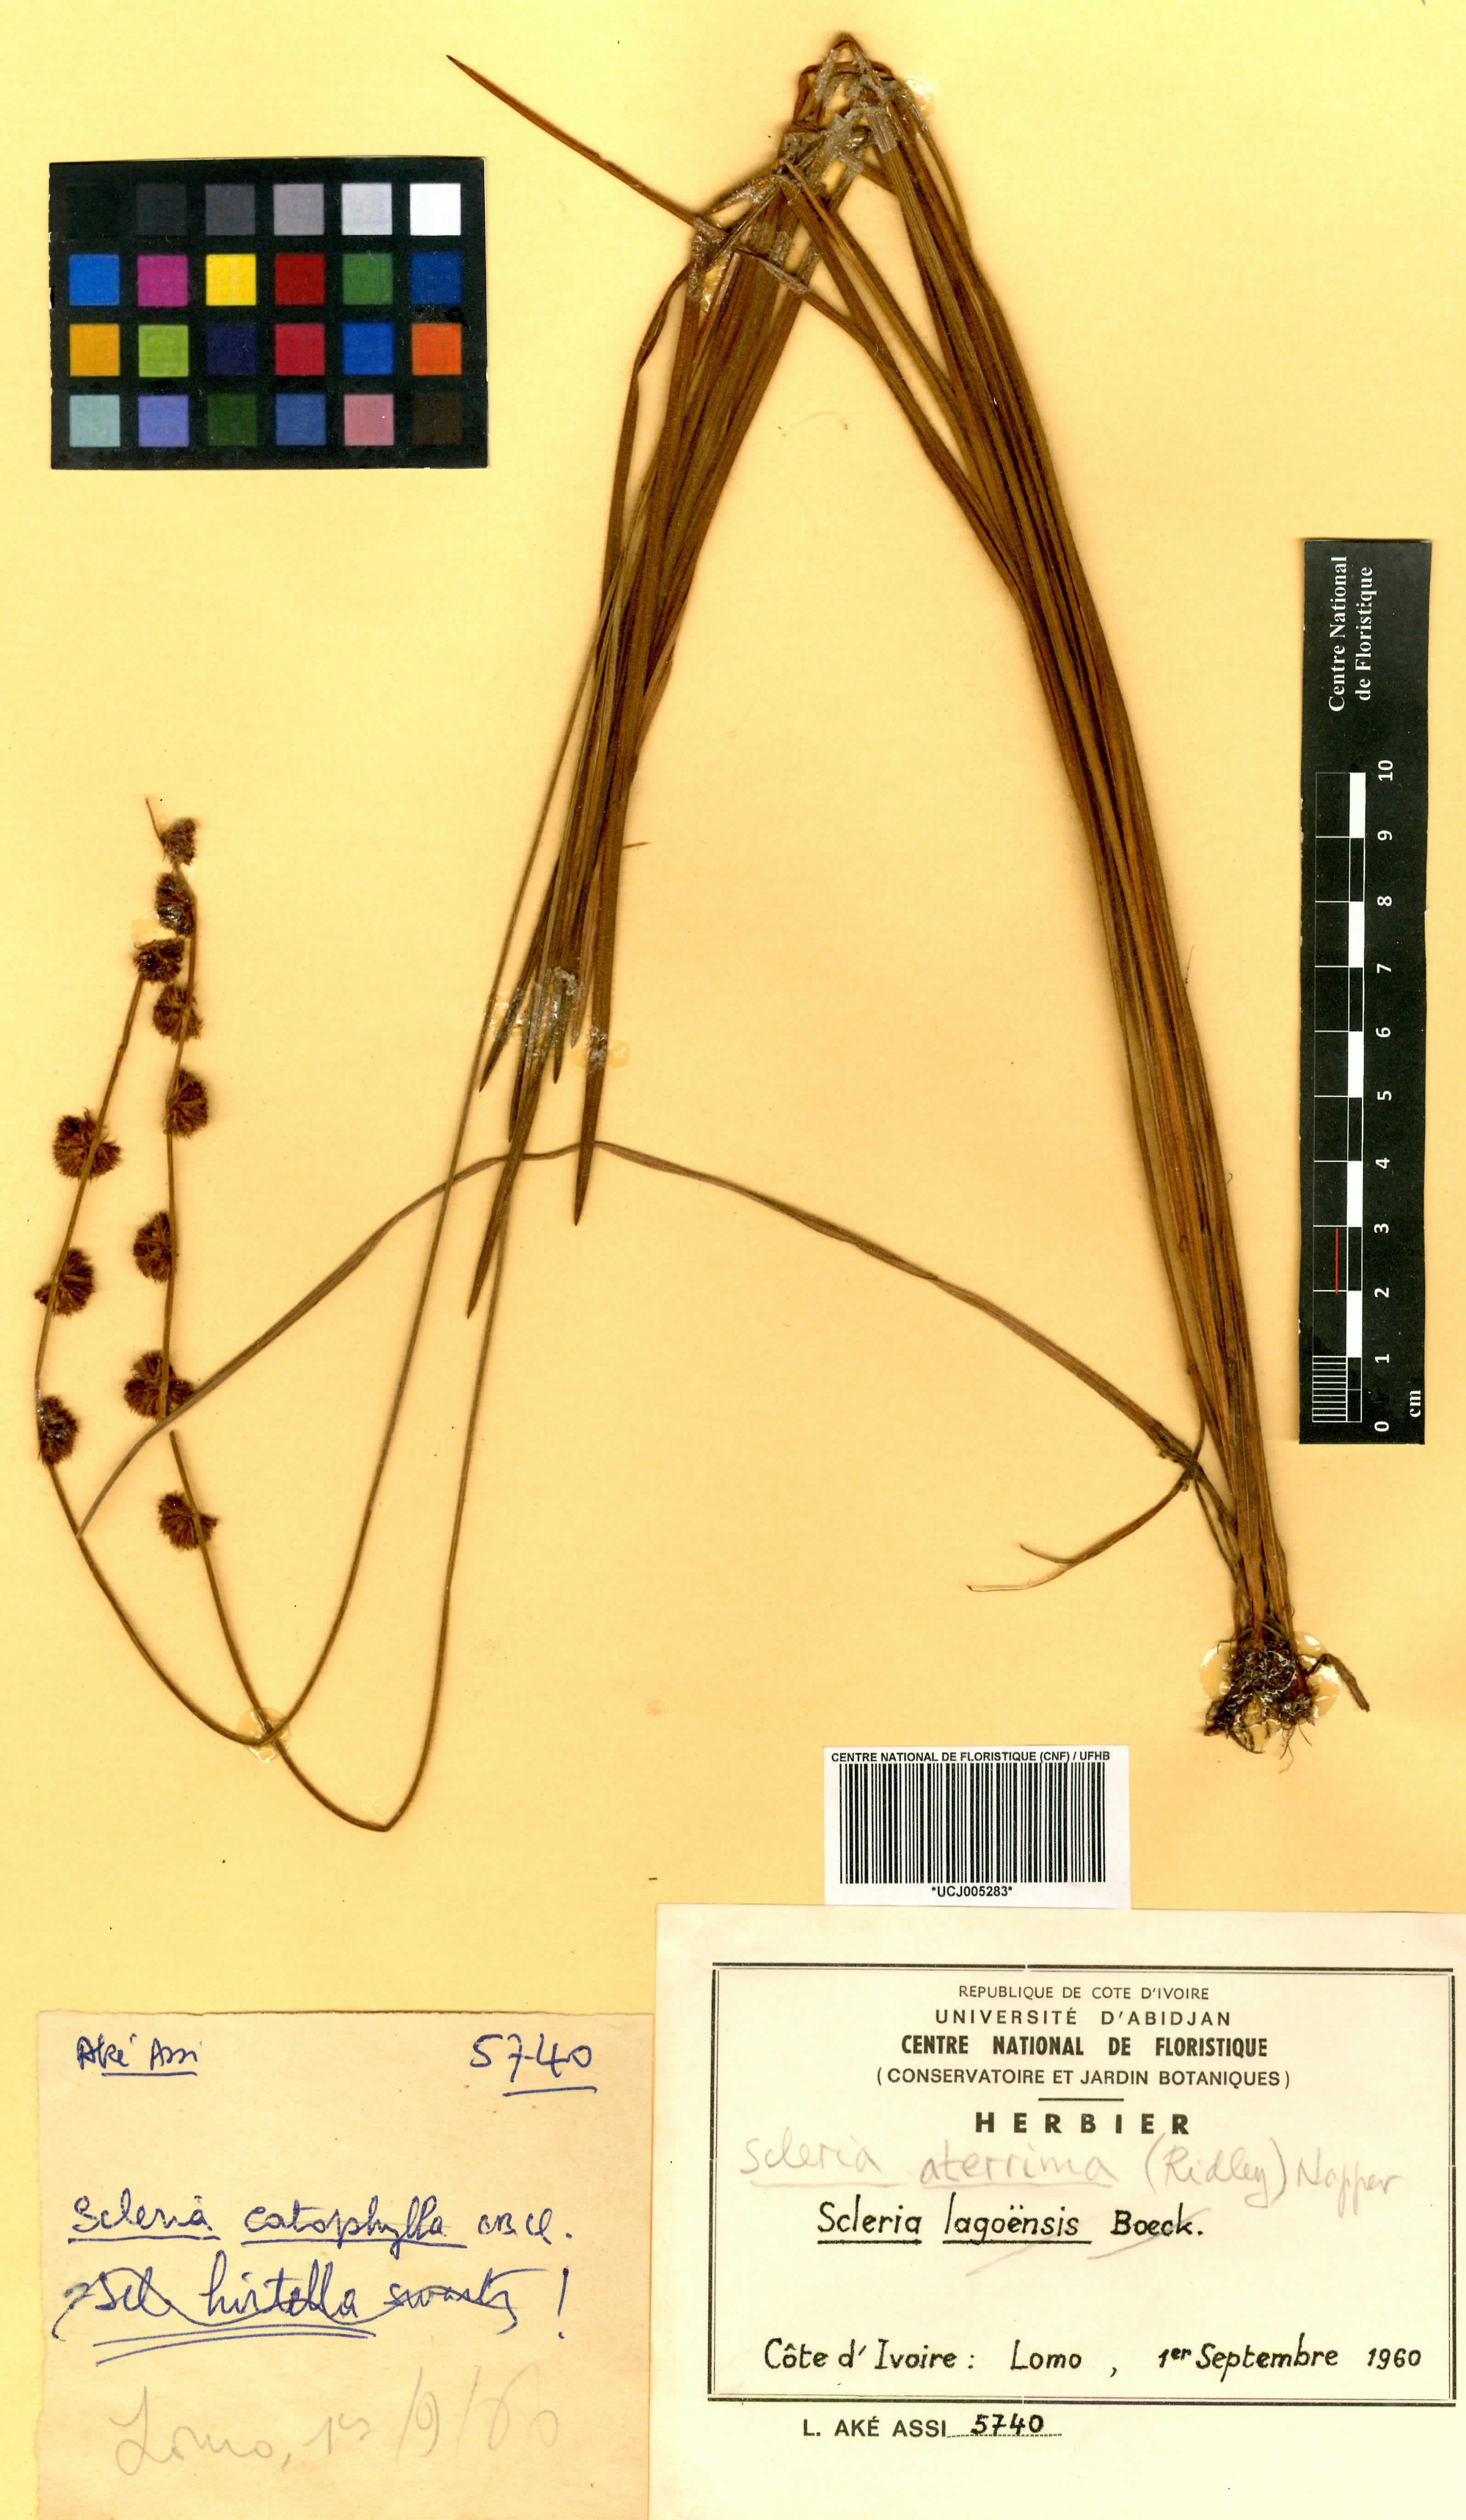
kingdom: Plantae
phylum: Tracheophyta
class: Liliopsida
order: Poales
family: Cyperaceae
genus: Scleria
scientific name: Scleria catophylla
